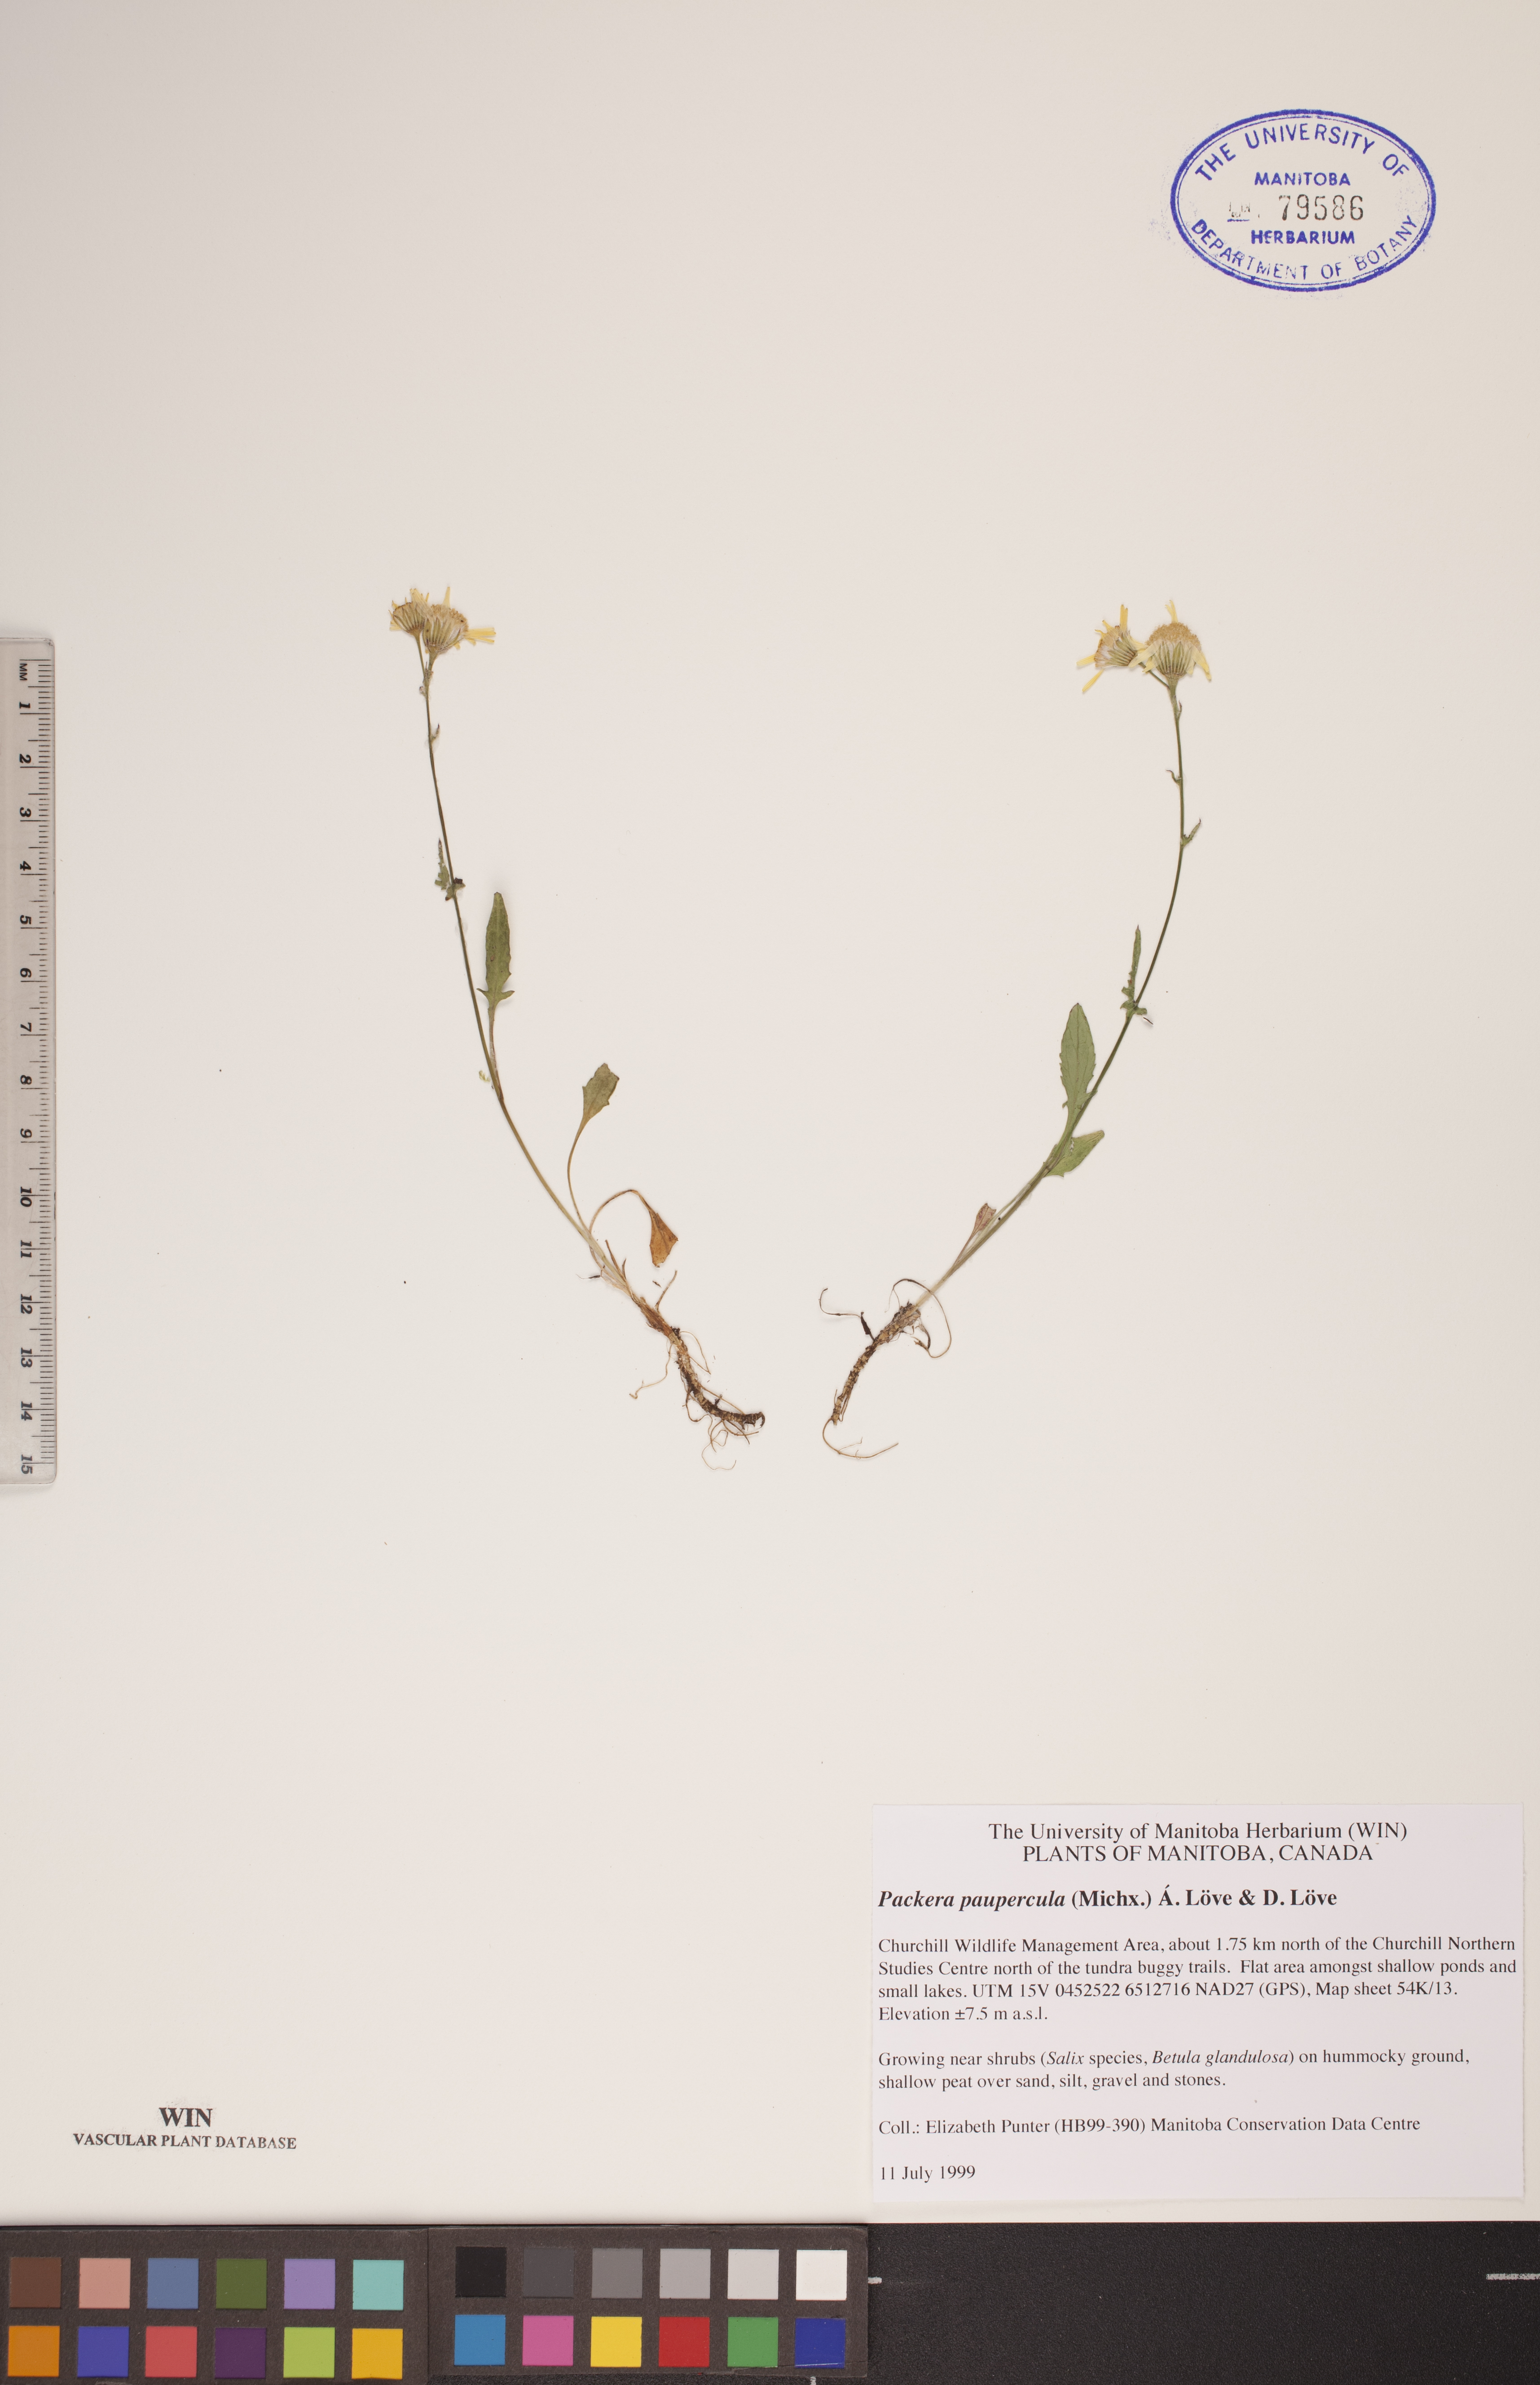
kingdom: Plantae
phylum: Tracheophyta
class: Magnoliopsida
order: Asterales
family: Asteraceae
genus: Packera
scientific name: Packera paupercula
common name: Balsam groundsel
